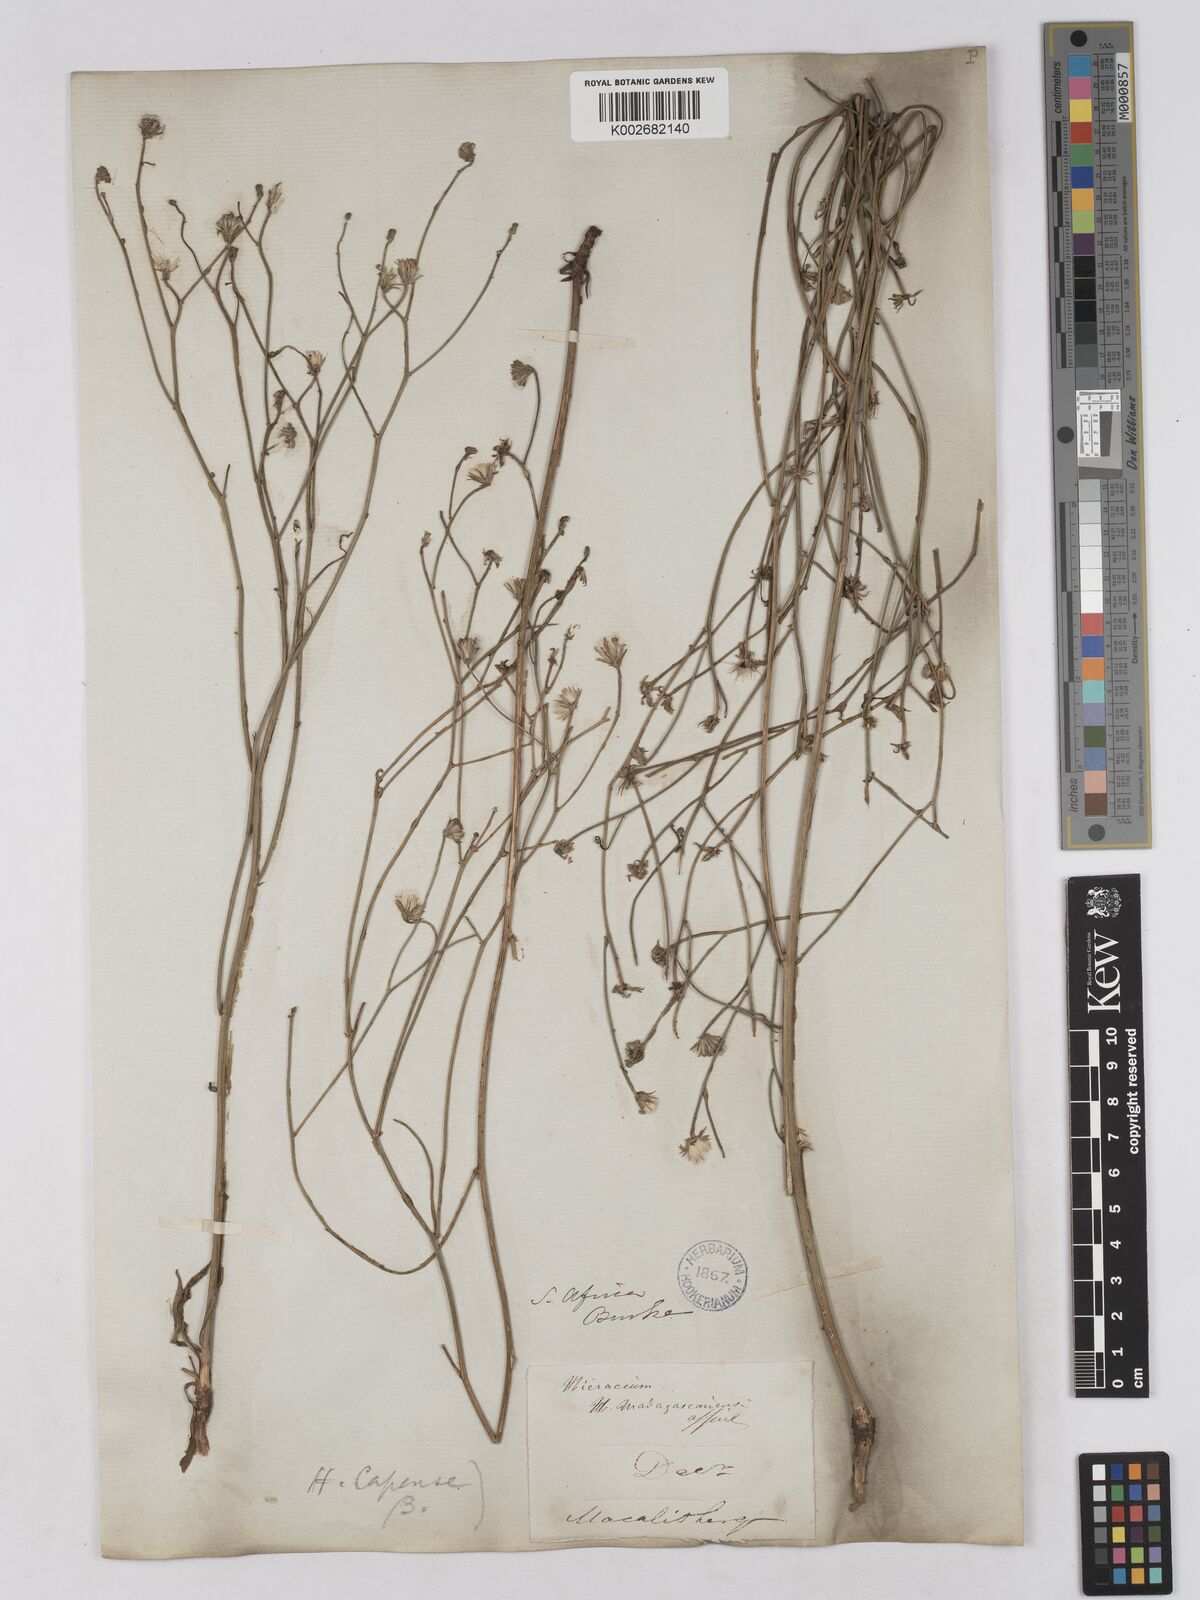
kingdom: Plantae
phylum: Tracheophyta
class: Magnoliopsida
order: Asterales
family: Asteraceae
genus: Tolpis
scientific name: Tolpis capensis
